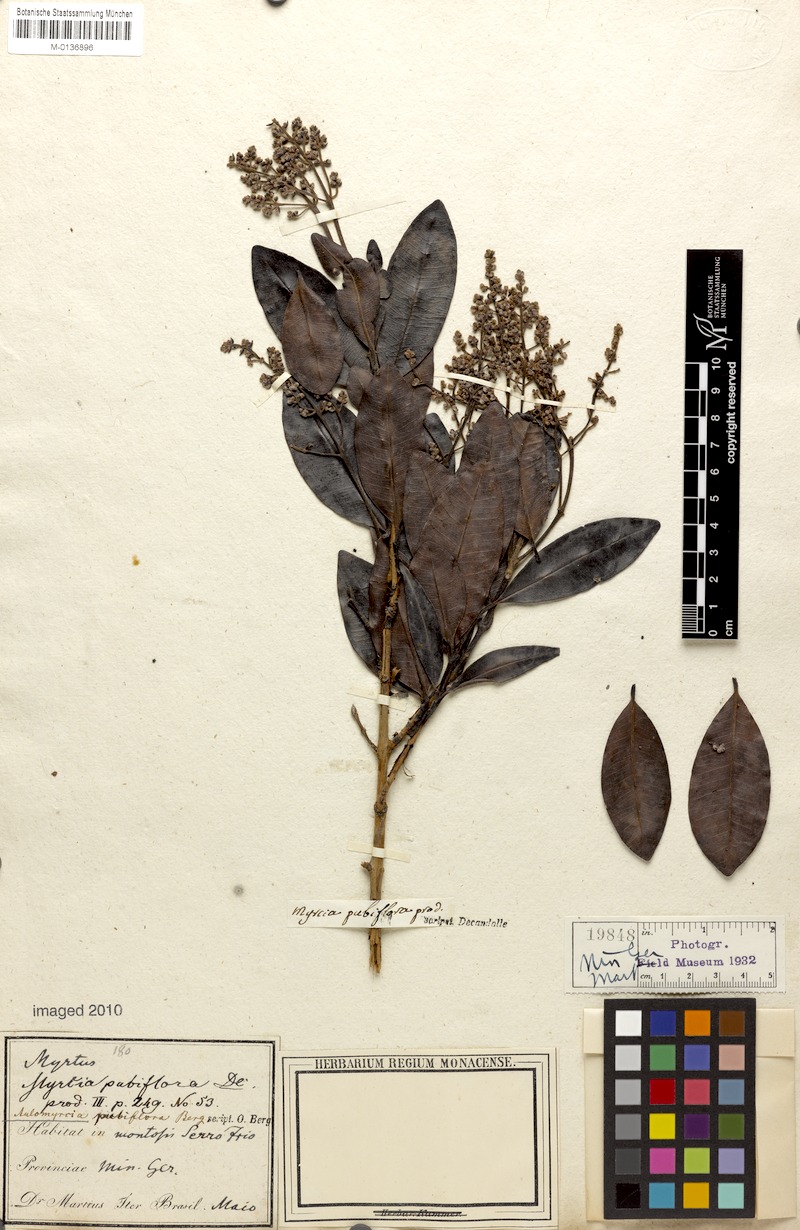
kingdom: Plantae
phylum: Tracheophyta
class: Magnoliopsida
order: Myrtales
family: Myrtaceae
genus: Myrcia
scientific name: Myrcia pubiflora
